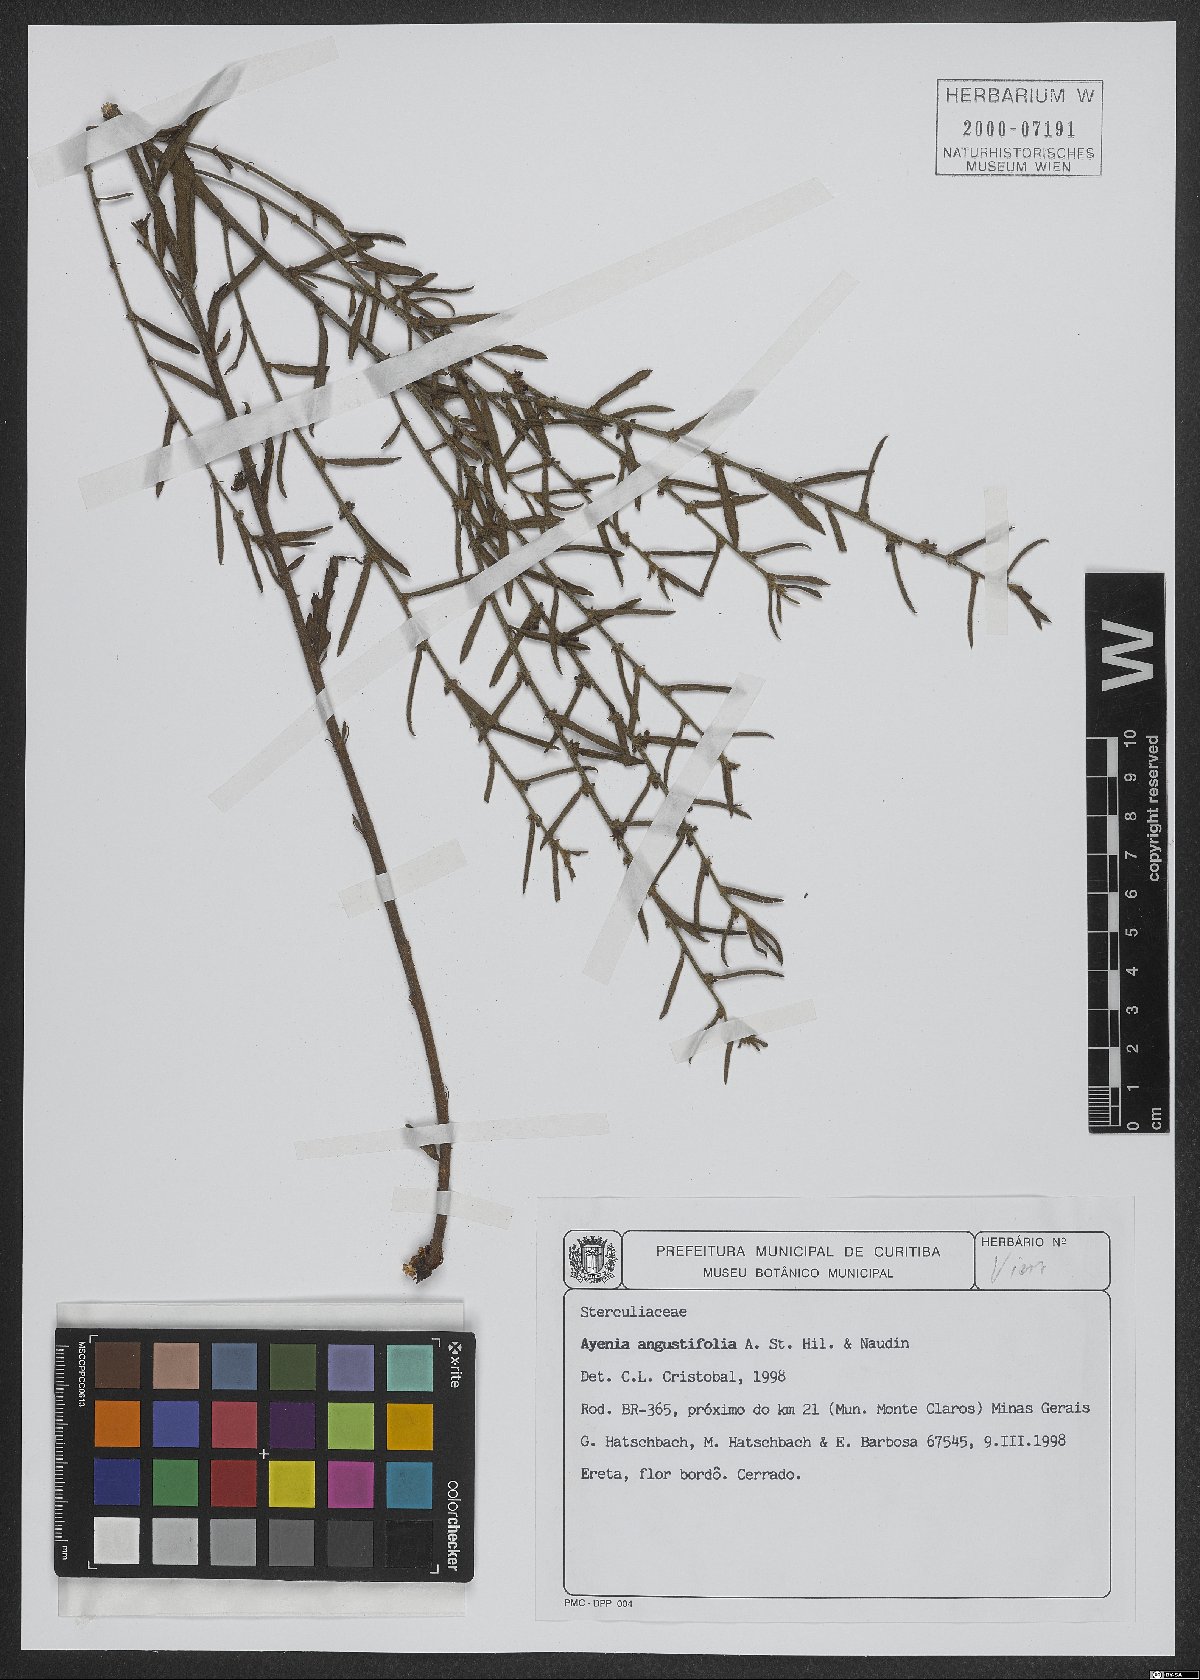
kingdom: Plantae
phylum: Tracheophyta
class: Magnoliopsida
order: Malvales
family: Malvaceae
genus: Ayenia
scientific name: Ayenia angustifolia
